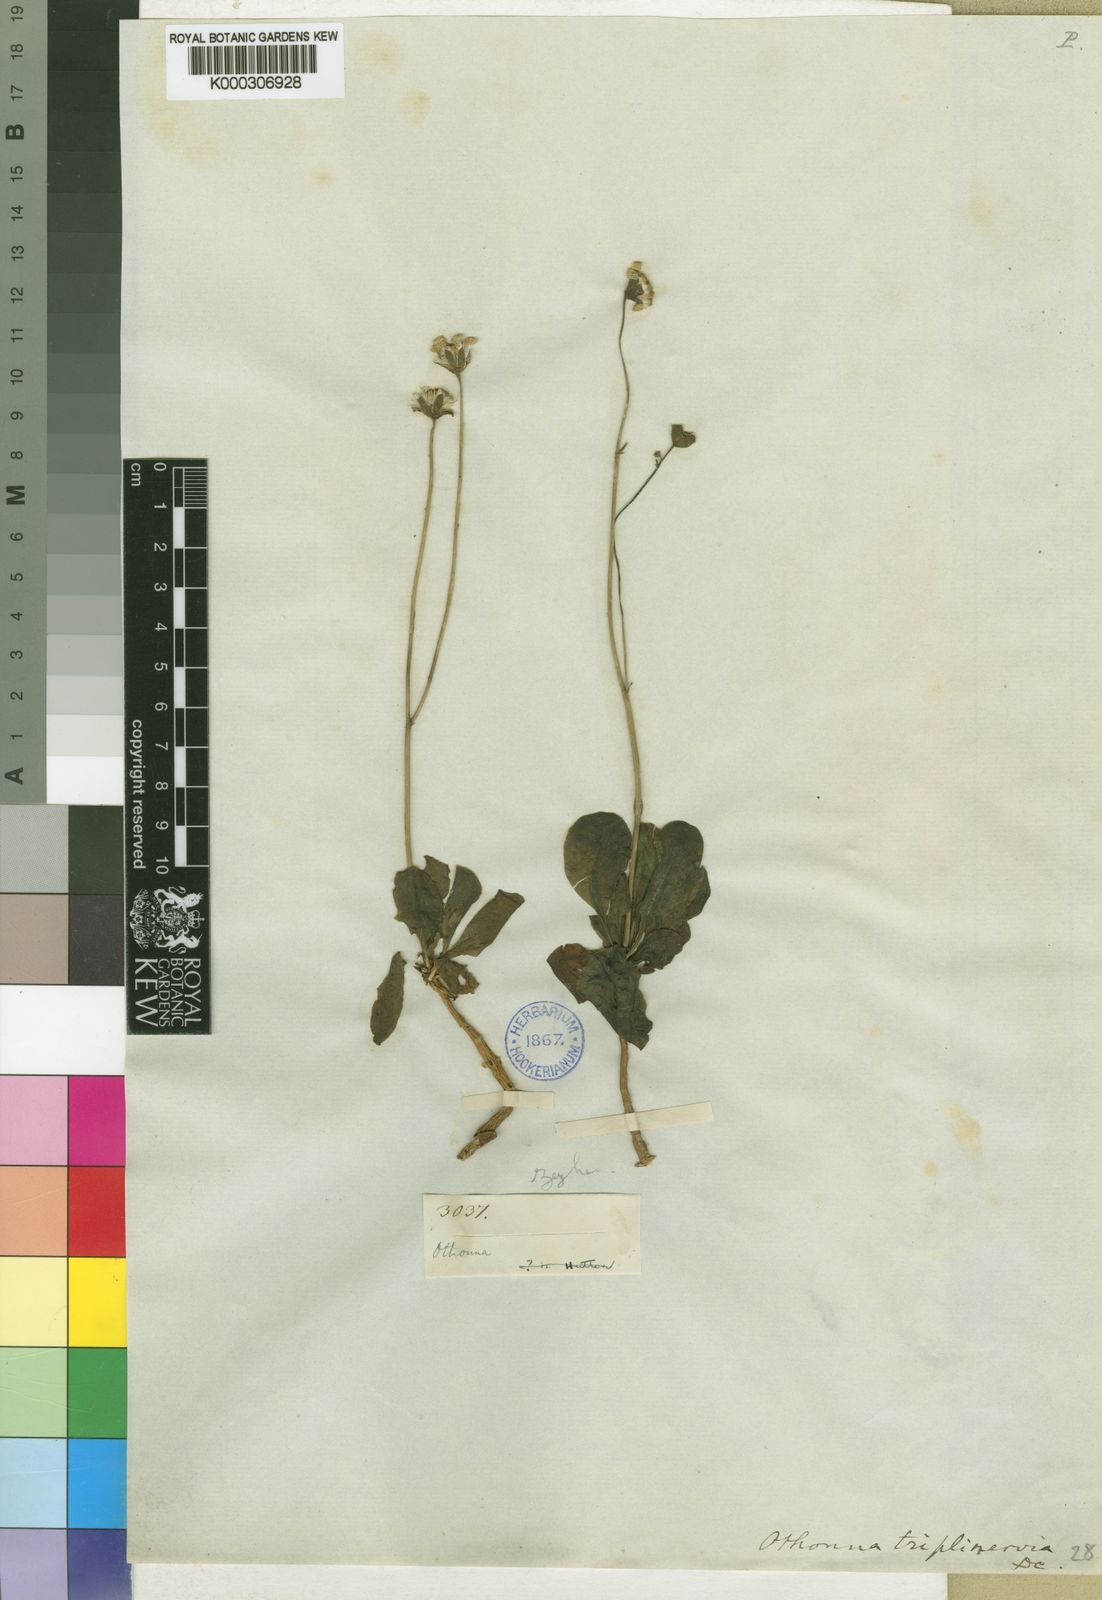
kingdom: Plantae
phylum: Tracheophyta
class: Magnoliopsida
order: Asterales
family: Asteraceae
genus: Othonna
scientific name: Othonna triplinervia
